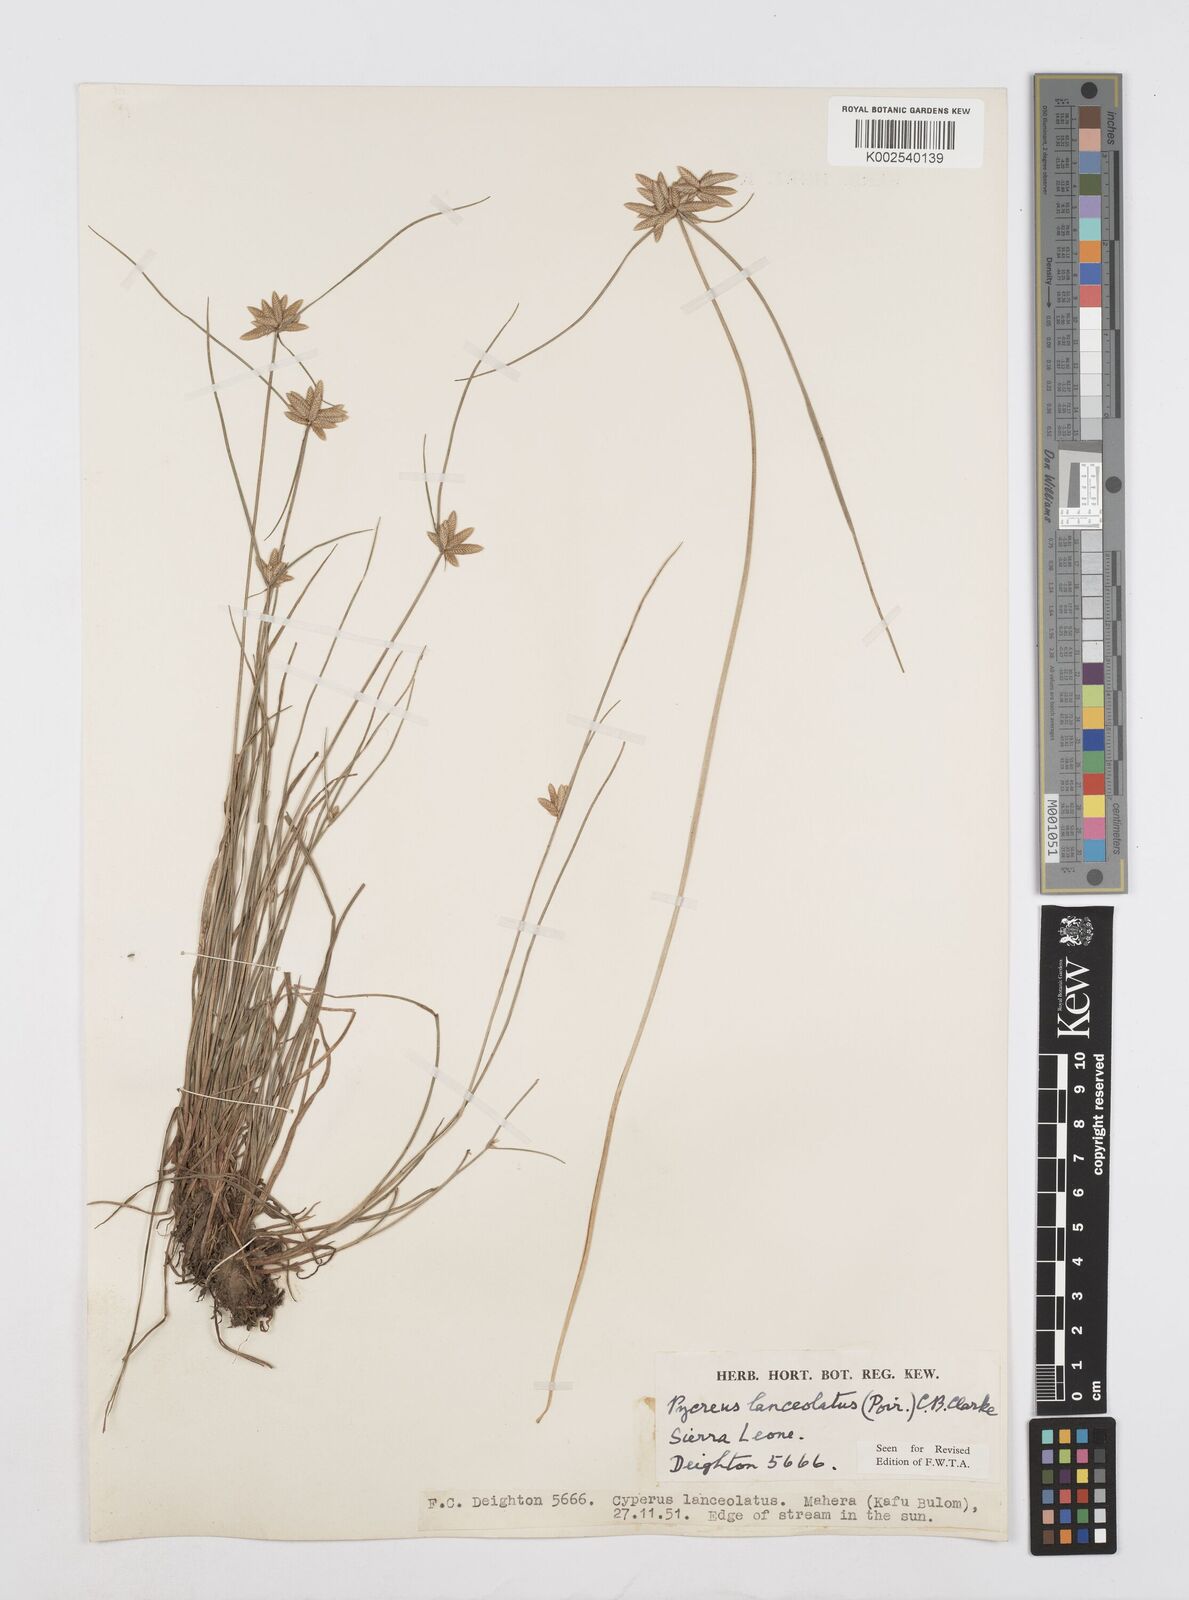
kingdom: Plantae
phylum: Tracheophyta
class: Liliopsida
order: Poales
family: Cyperaceae
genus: Cyperus
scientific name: Cyperus
